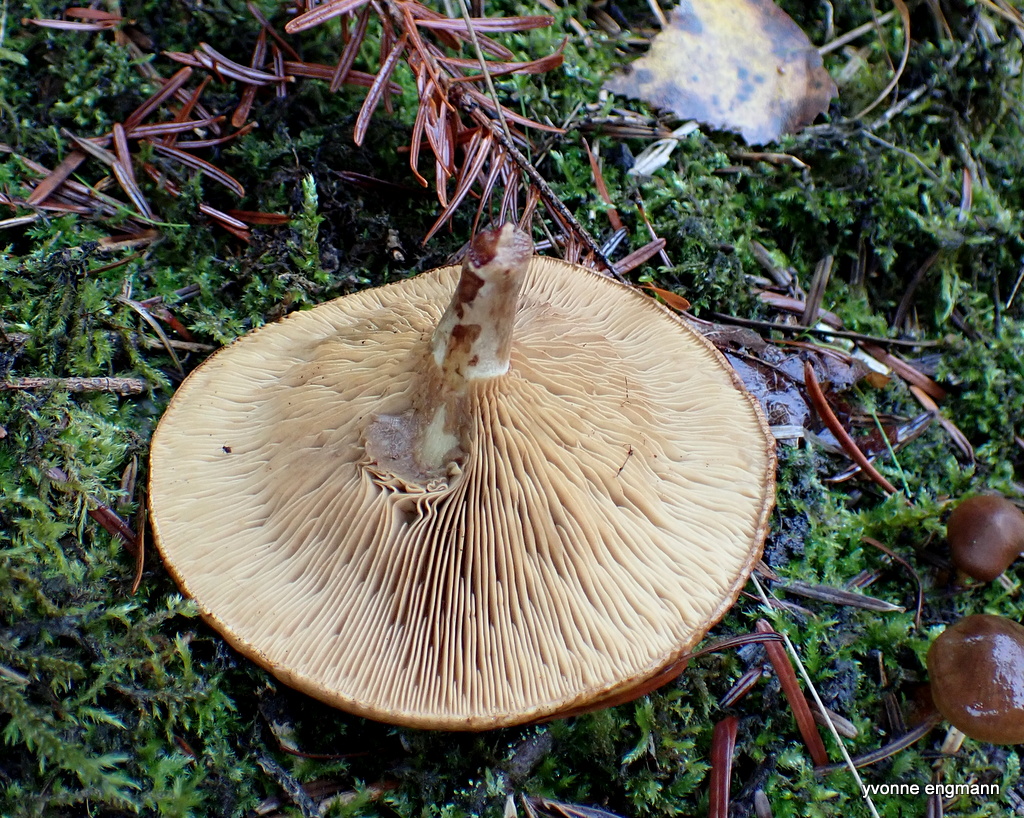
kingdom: Fungi
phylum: Basidiomycota
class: Agaricomycetes
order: Boletales
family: Paxillaceae
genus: Paxillus
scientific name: Paxillus involutus
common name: almindelig netbladhat
